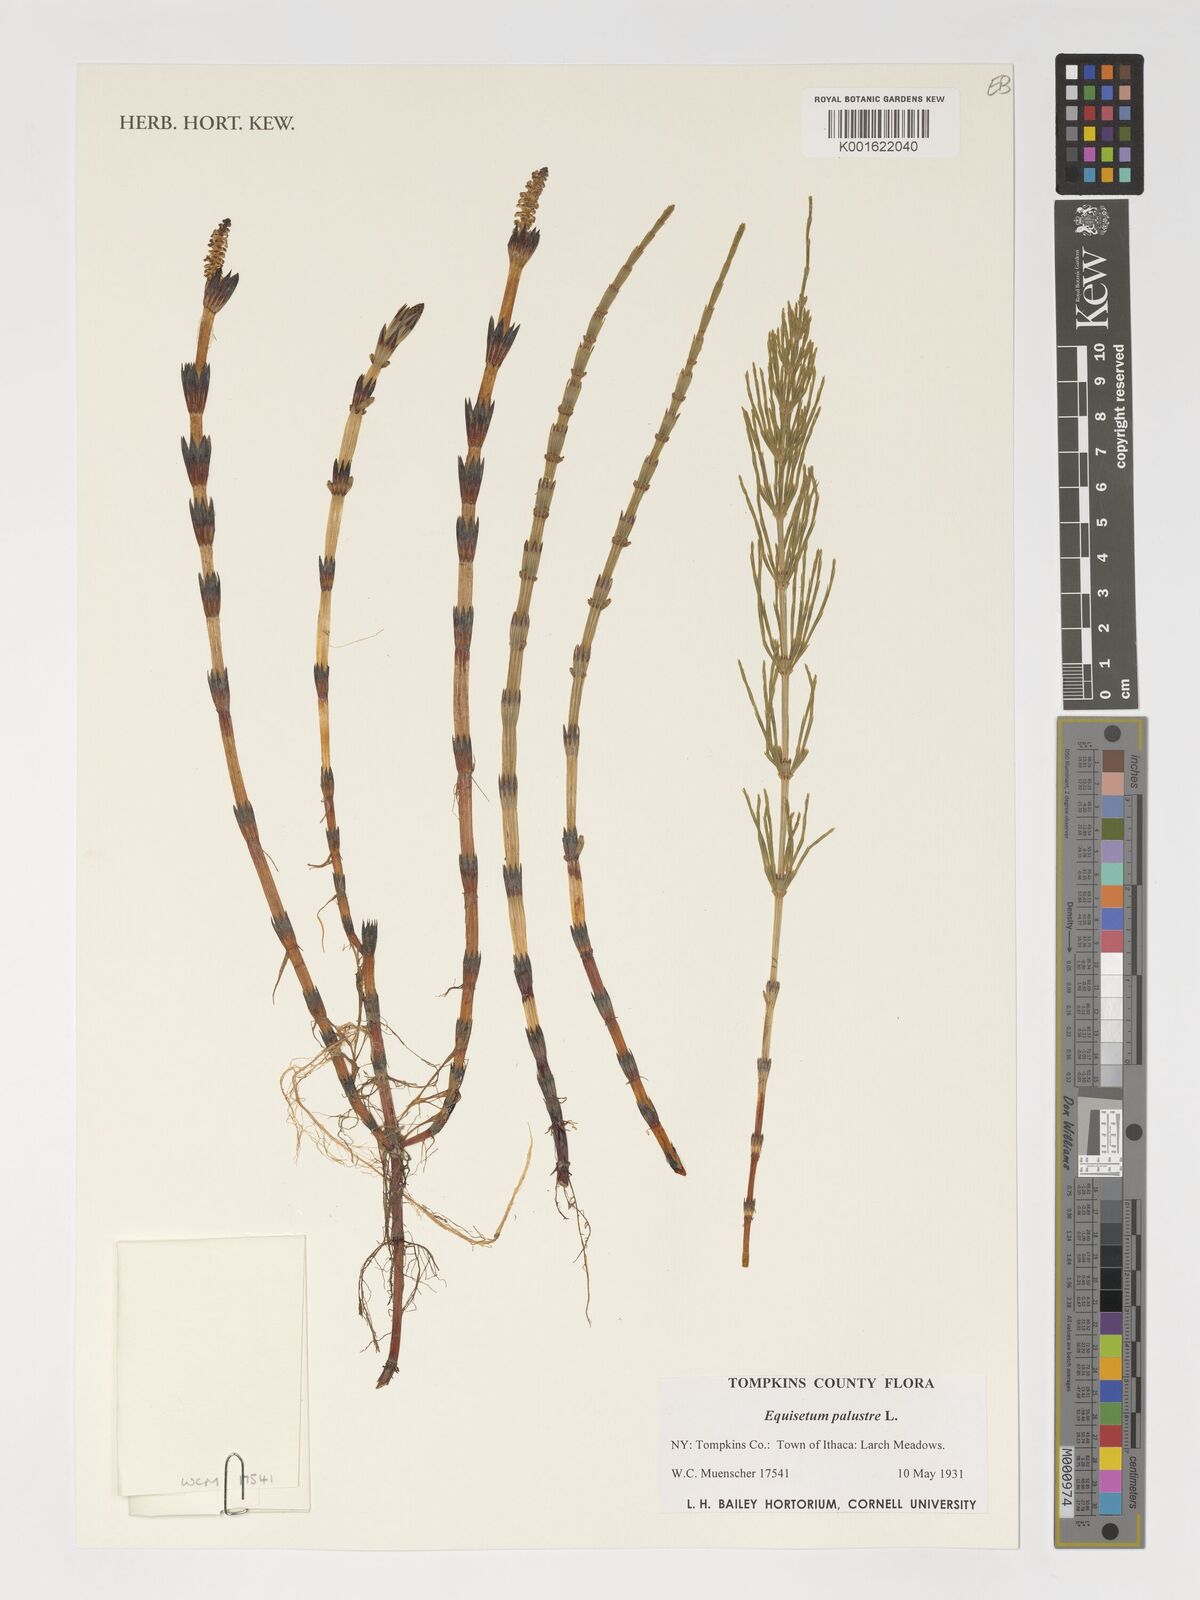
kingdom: Plantae
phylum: Tracheophyta
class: Polypodiopsida
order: Equisetales
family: Equisetaceae
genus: Equisetum
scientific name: Equisetum palustre
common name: Marsh horsetail
